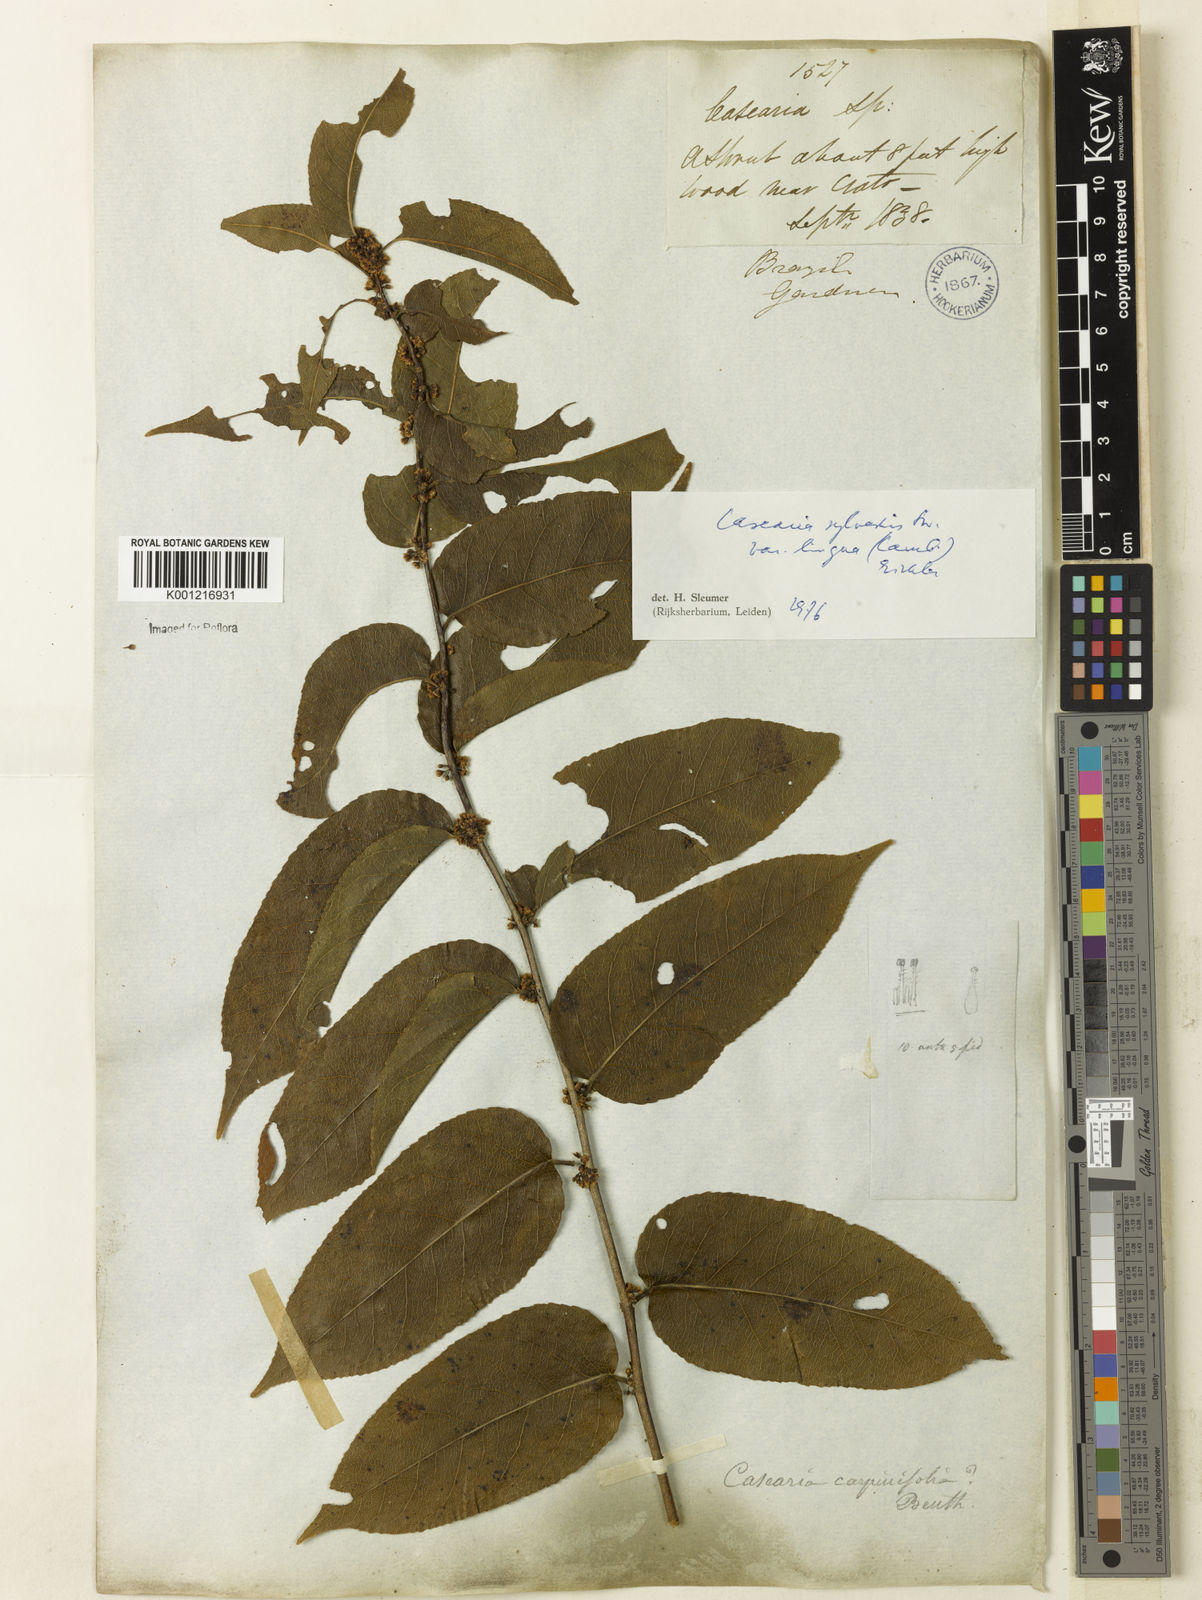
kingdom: Plantae
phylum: Tracheophyta
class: Magnoliopsida
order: Malpighiales
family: Salicaceae
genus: Casearia
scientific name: Casearia sylvestris
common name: Wild sage
